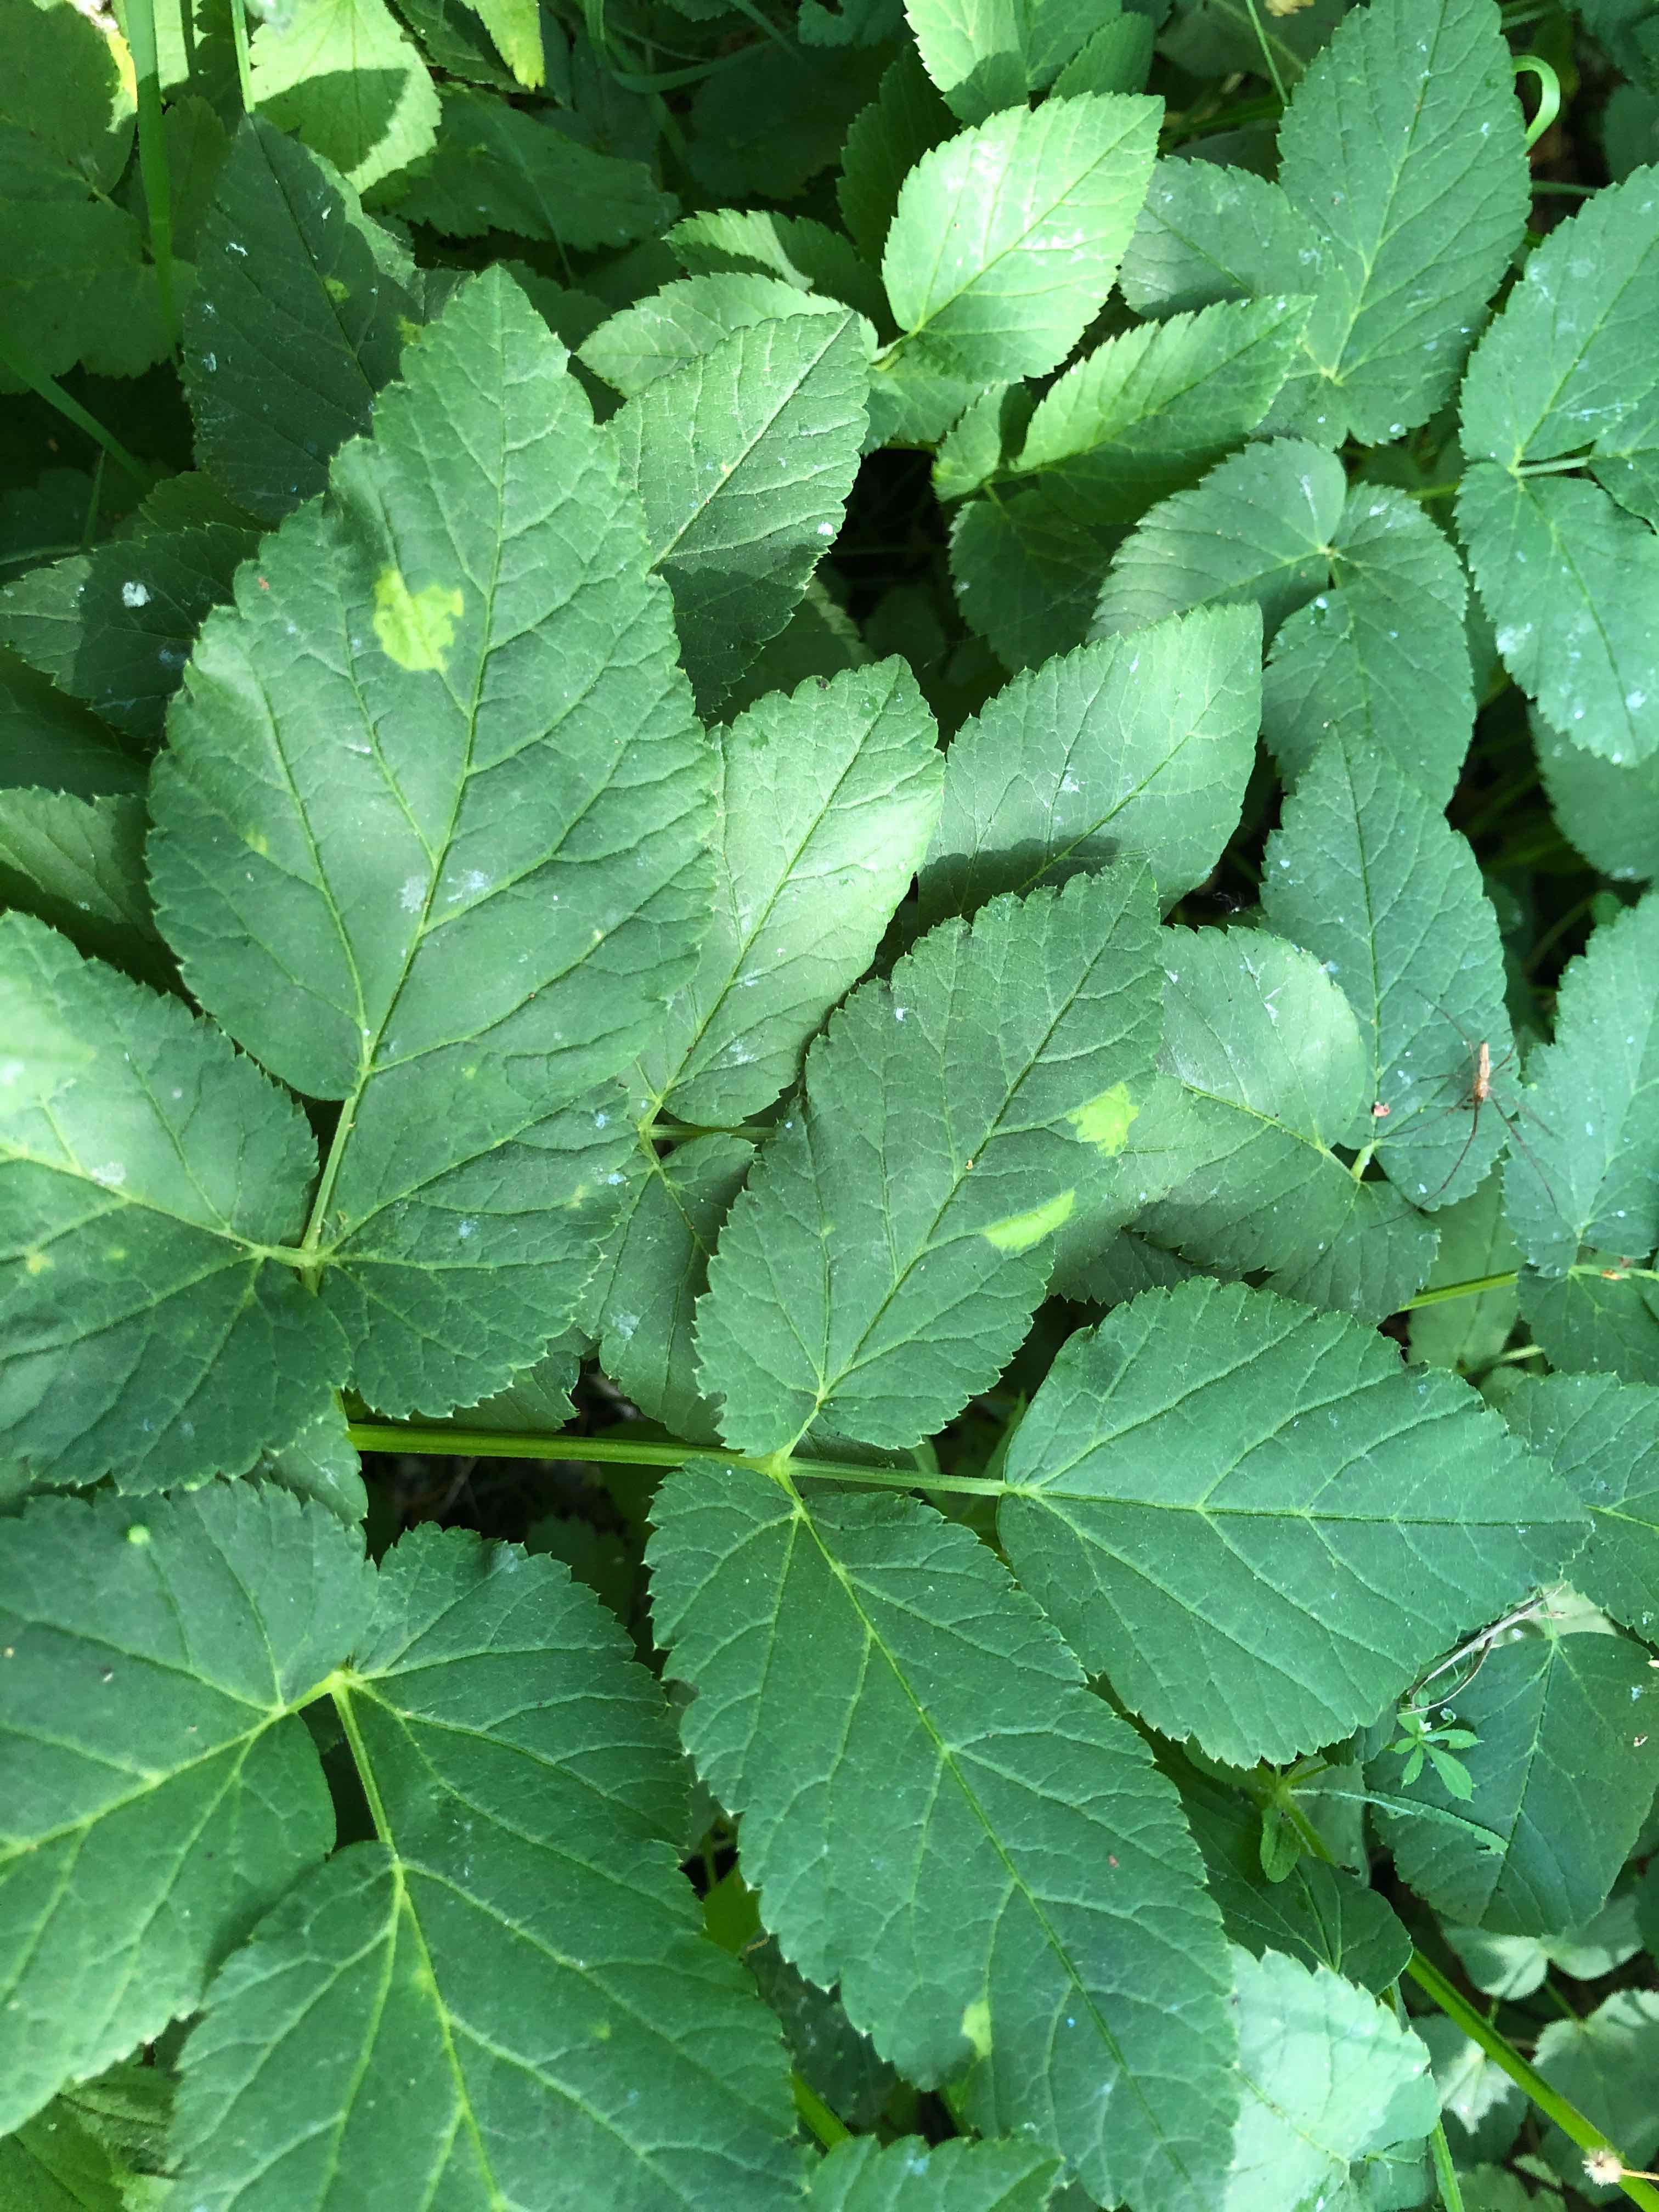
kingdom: Chromista
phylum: Oomycota
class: Peronosporea
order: Peronosporales
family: Peronosporaceae
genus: Peronospora
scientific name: Peronospora crustosa
